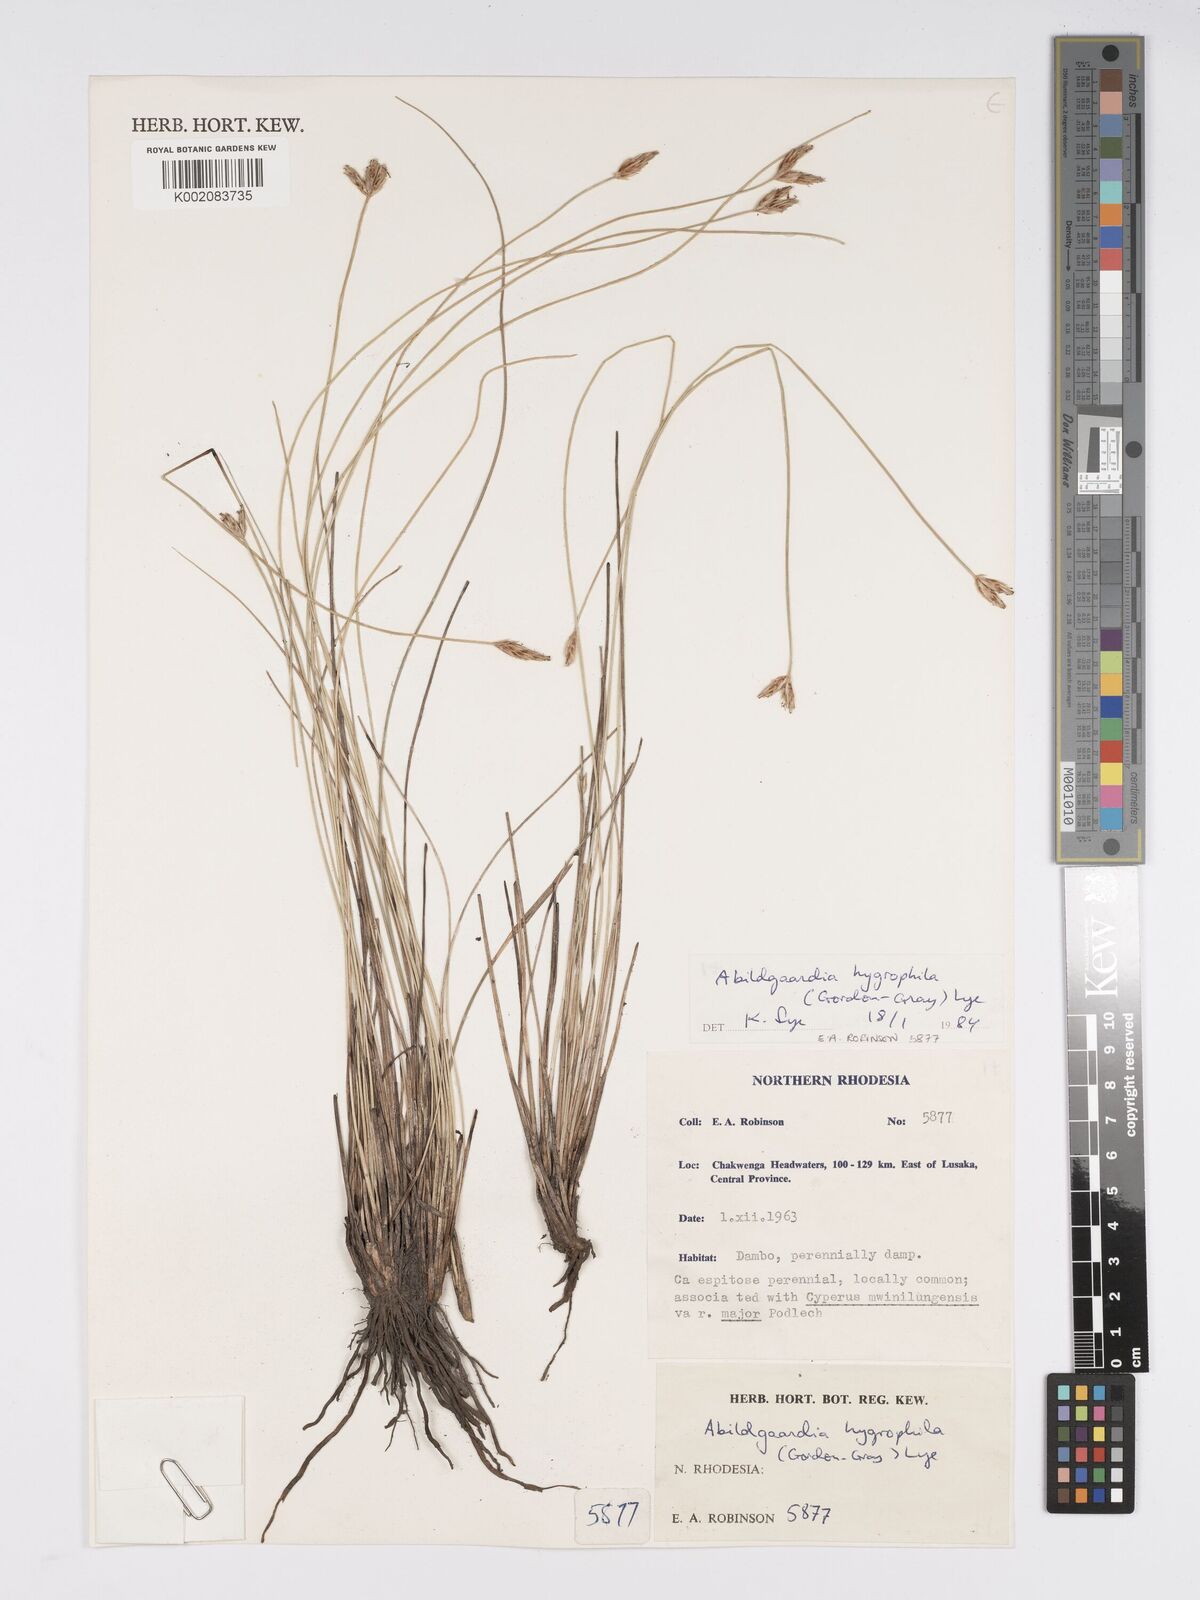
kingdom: Plantae
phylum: Tracheophyta
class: Liliopsida
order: Poales
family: Cyperaceae
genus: Bulbostylis
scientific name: Bulbostylis
